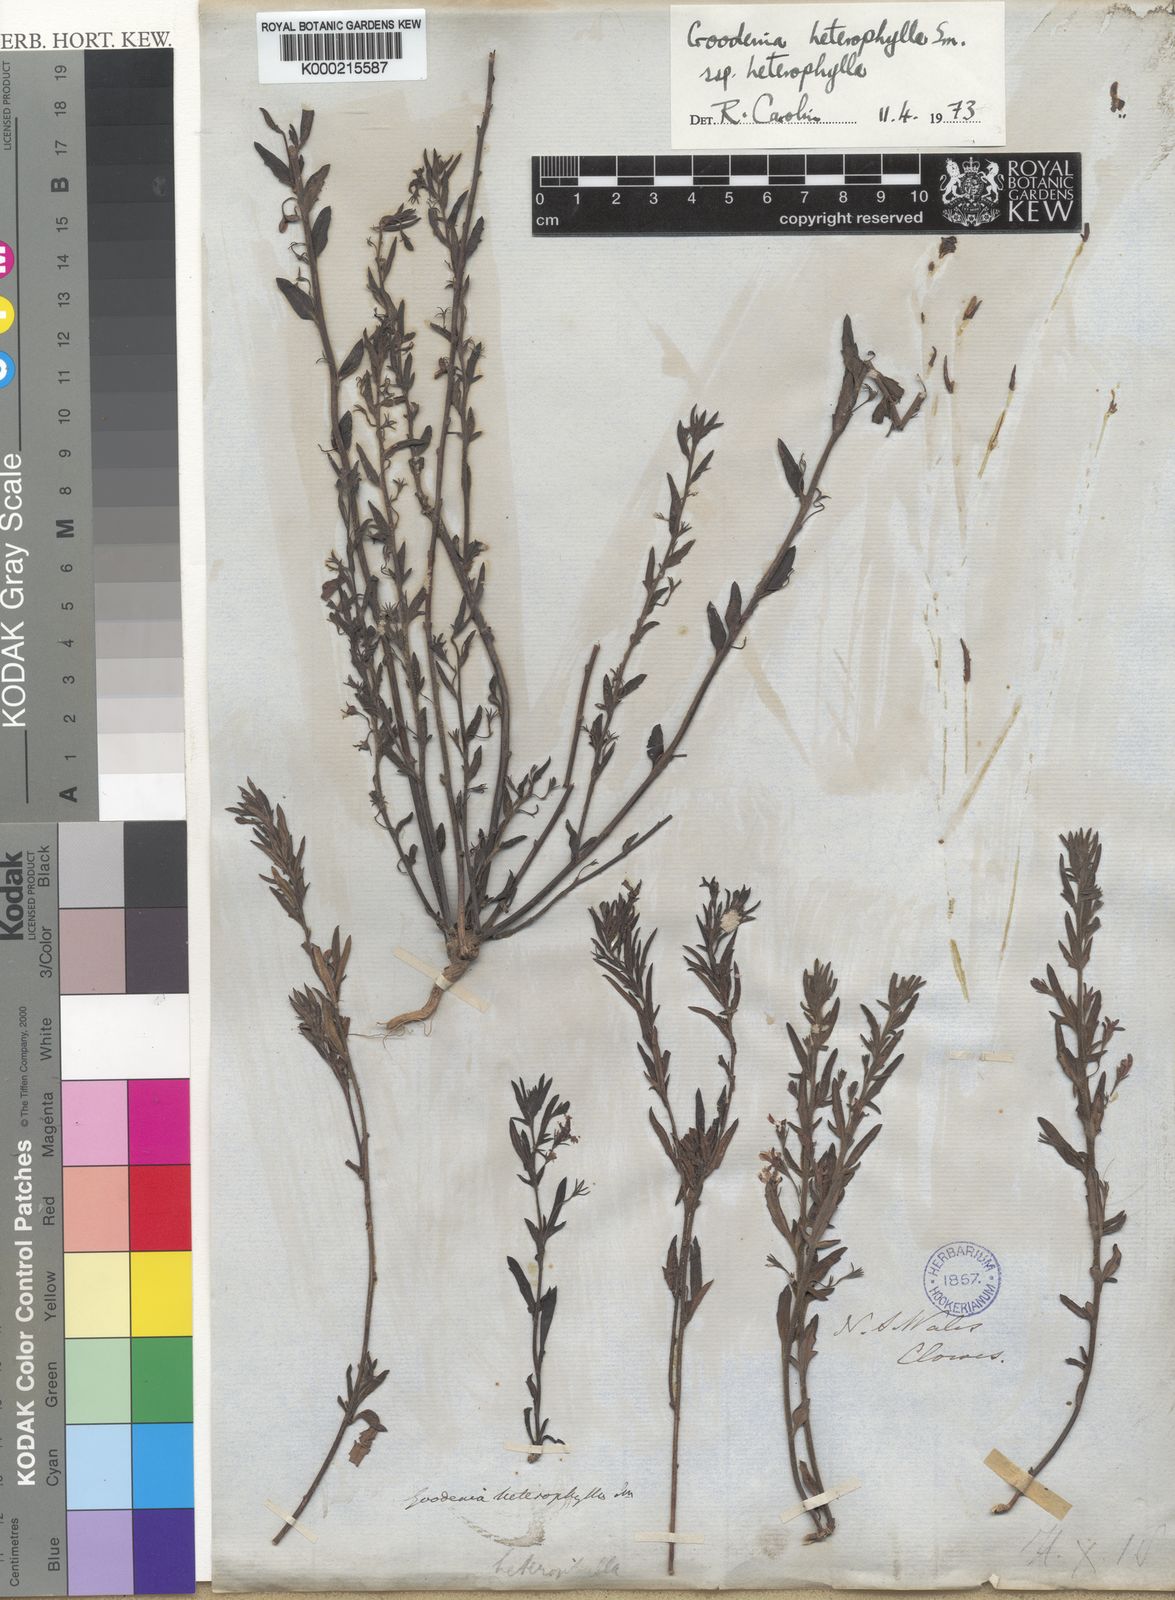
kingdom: Plantae
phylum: Tracheophyta
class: Magnoliopsida
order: Asterales
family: Goodeniaceae
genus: Goodenia
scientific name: Goodenia
